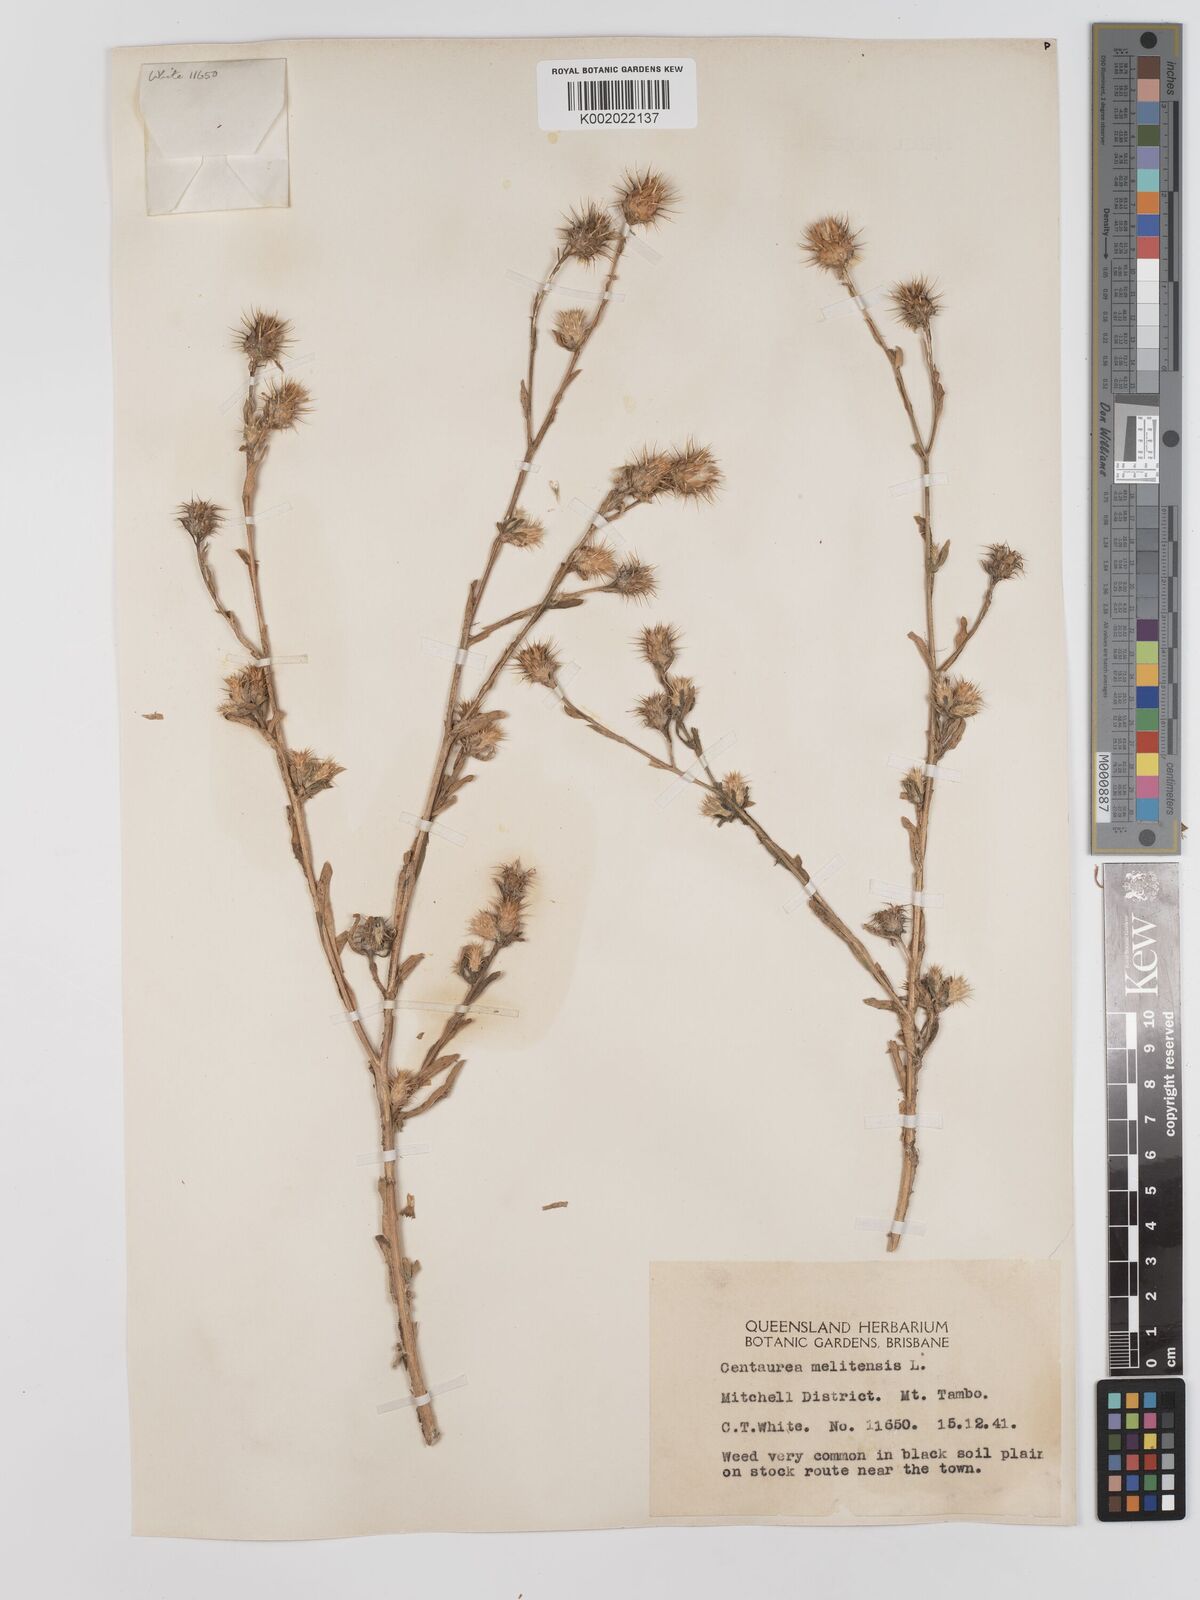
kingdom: Plantae
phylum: Tracheophyta
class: Magnoliopsida
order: Asterales
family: Asteraceae
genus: Centaurea
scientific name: Centaurea melitensis
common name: Maltese star-thistle
